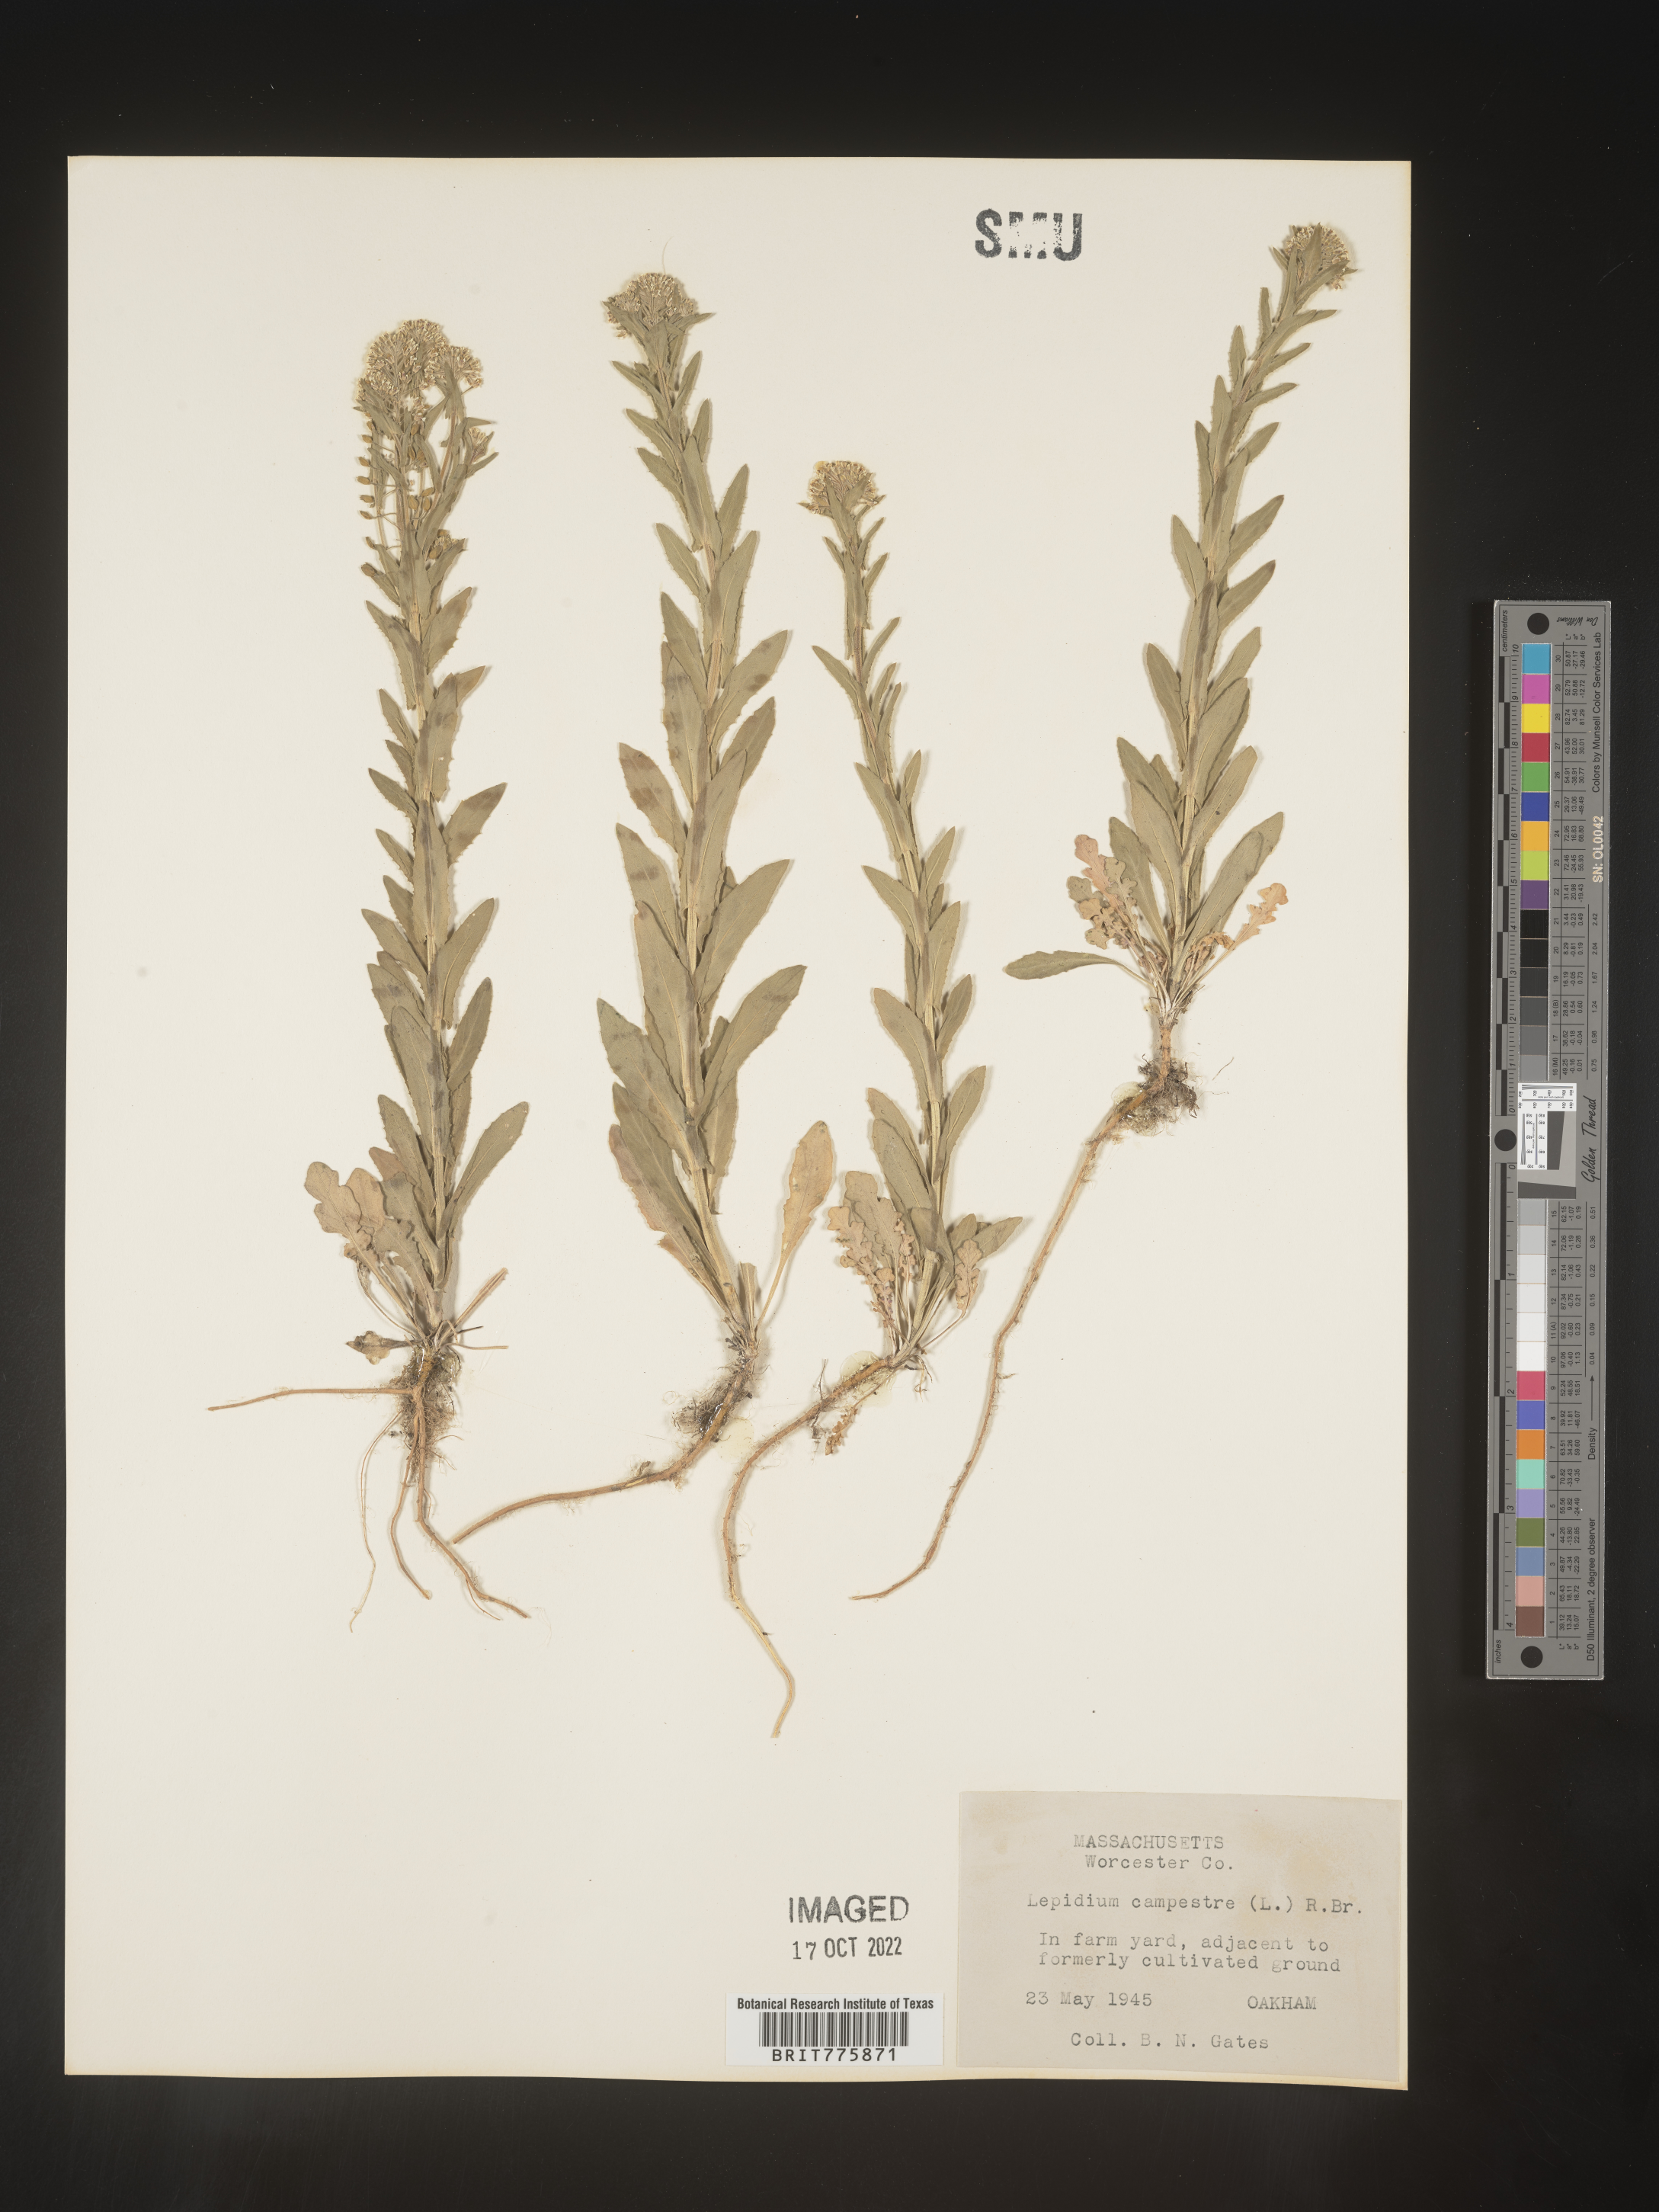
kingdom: Plantae
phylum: Tracheophyta
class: Magnoliopsida
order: Brassicales
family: Brassicaceae
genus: Lepidium
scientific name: Lepidium campestre
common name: Field pepperwort
